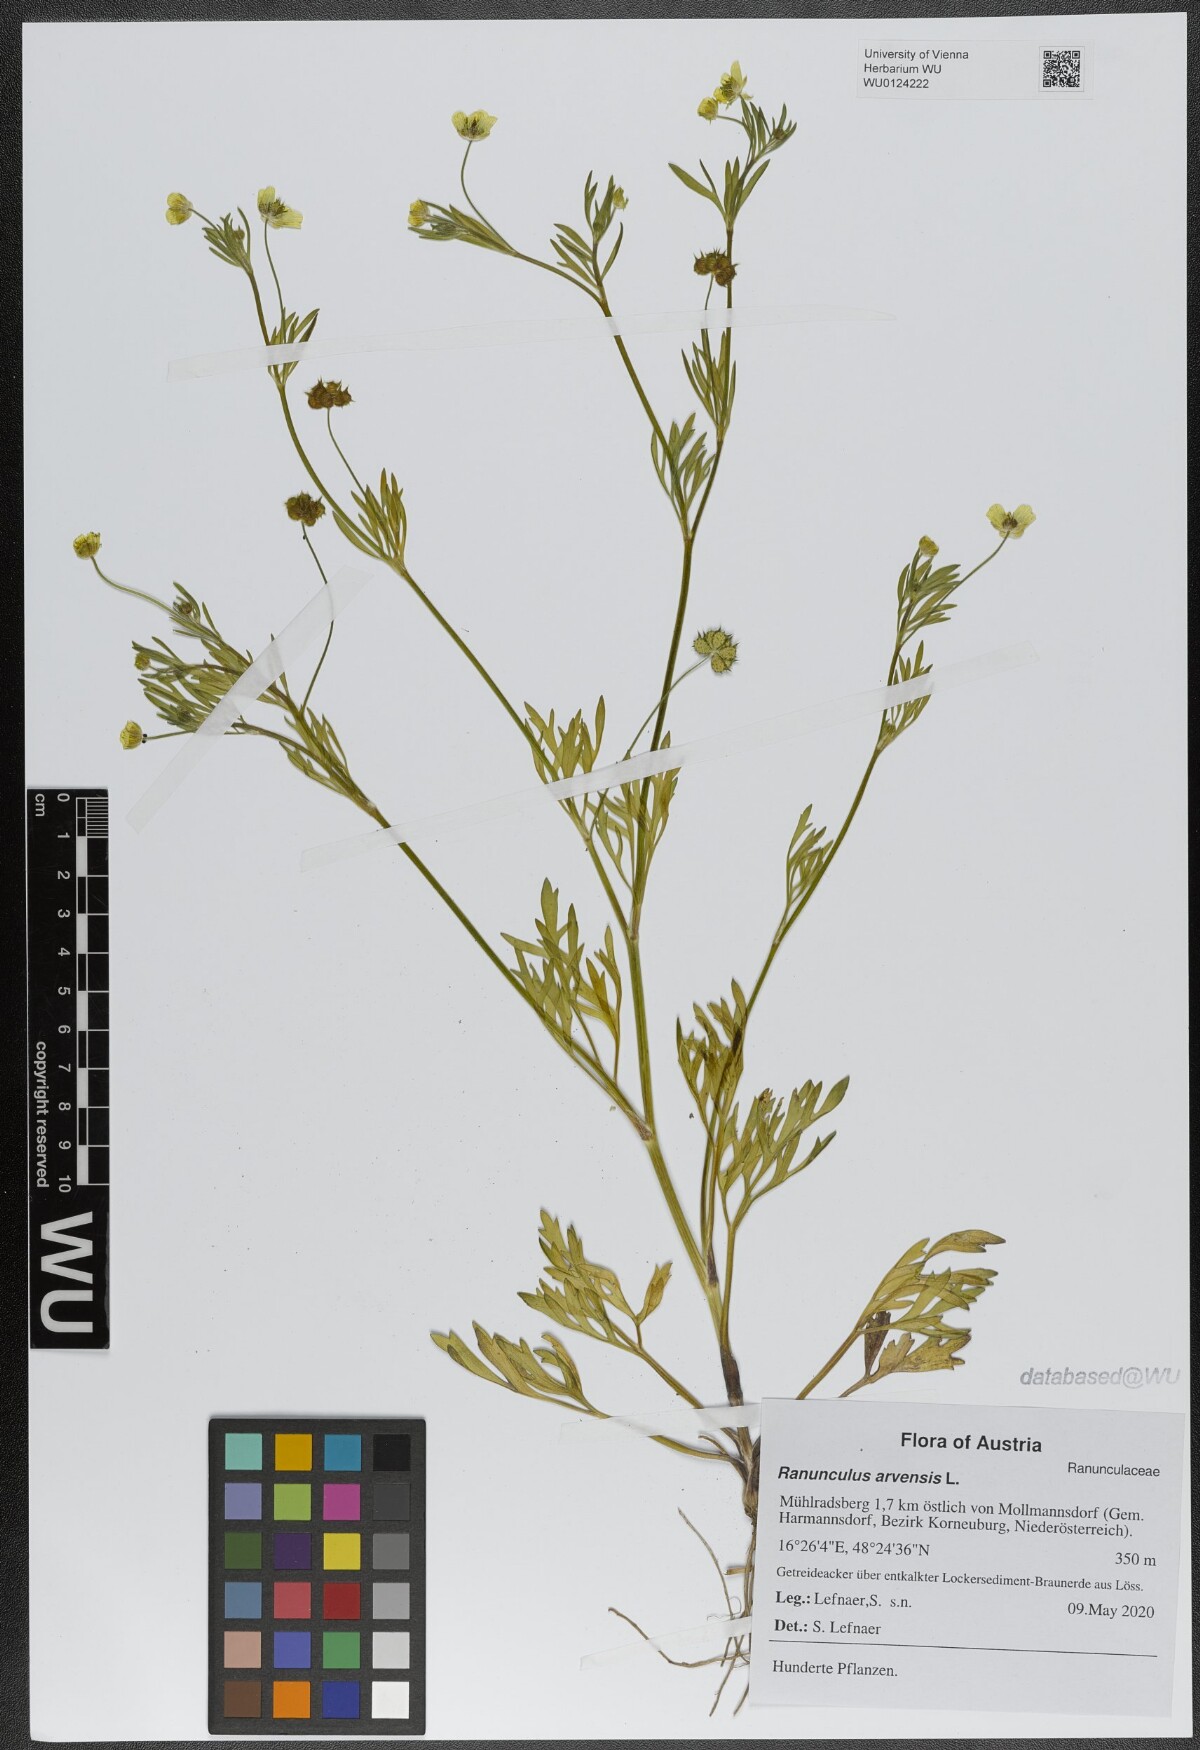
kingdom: Plantae
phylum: Tracheophyta
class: Magnoliopsida
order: Ranunculales
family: Ranunculaceae
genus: Ranunculus
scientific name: Ranunculus arvensis
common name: Corn buttercup
